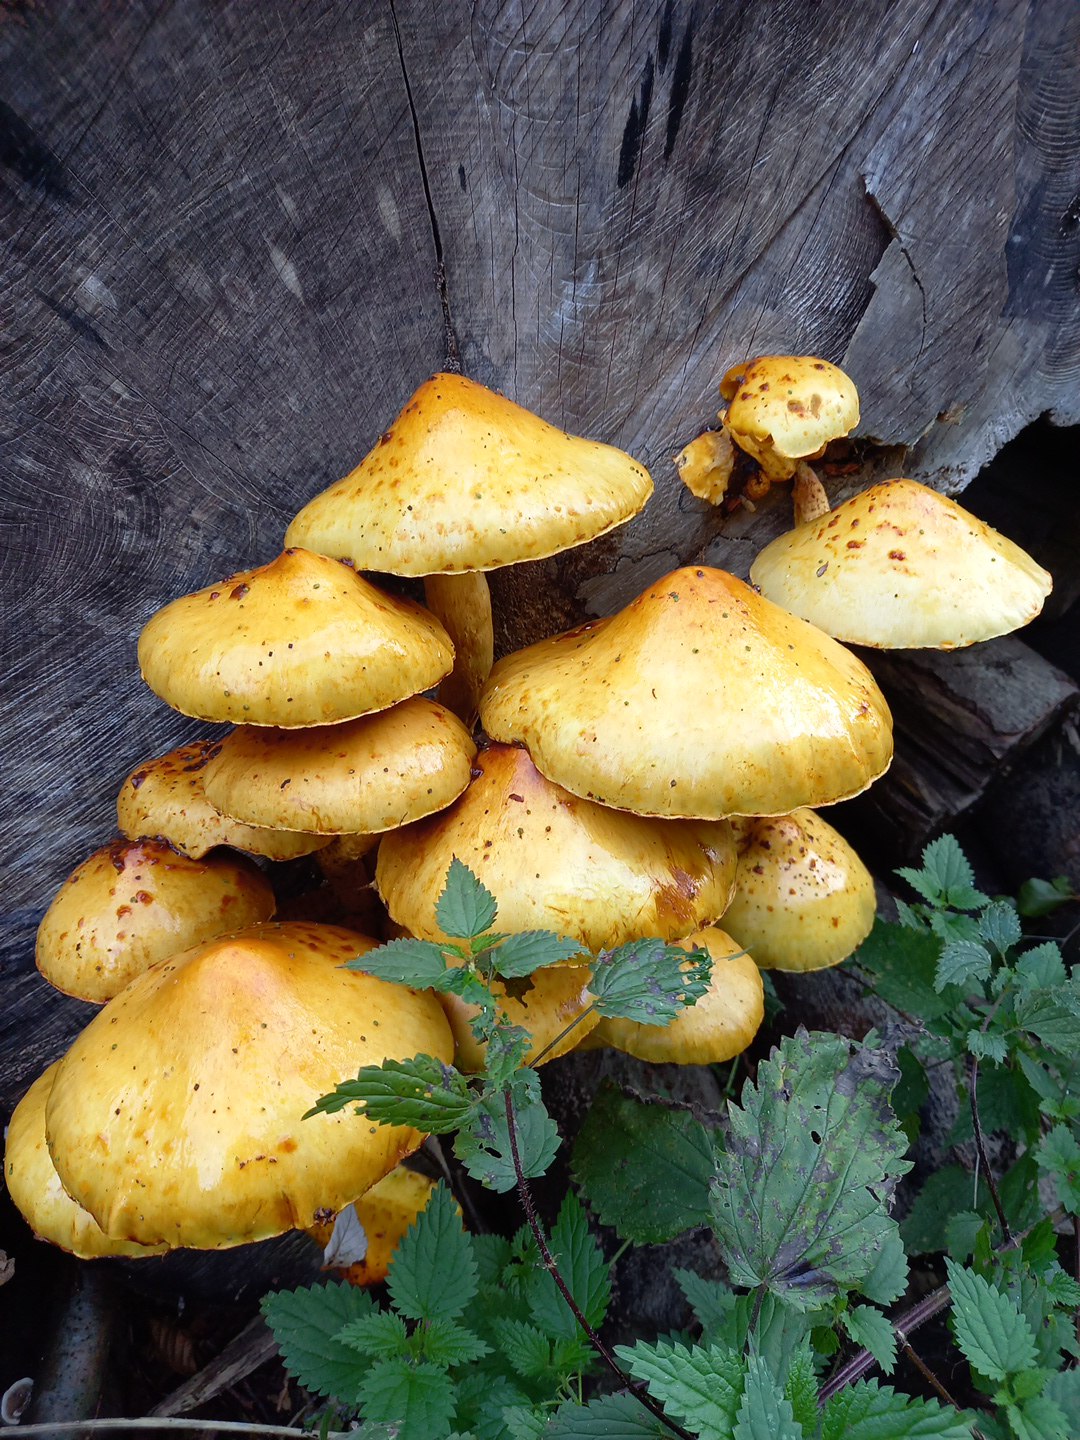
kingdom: Fungi
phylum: Basidiomycota
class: Agaricomycetes
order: Agaricales
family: Strophariaceae
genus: Pholiota
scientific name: Pholiota adiposa
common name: højtsiddende skælhat
